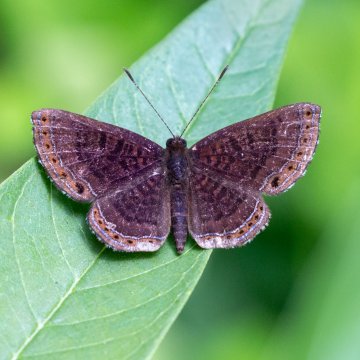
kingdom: Animalia
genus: Calephelis
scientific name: Calephelis
